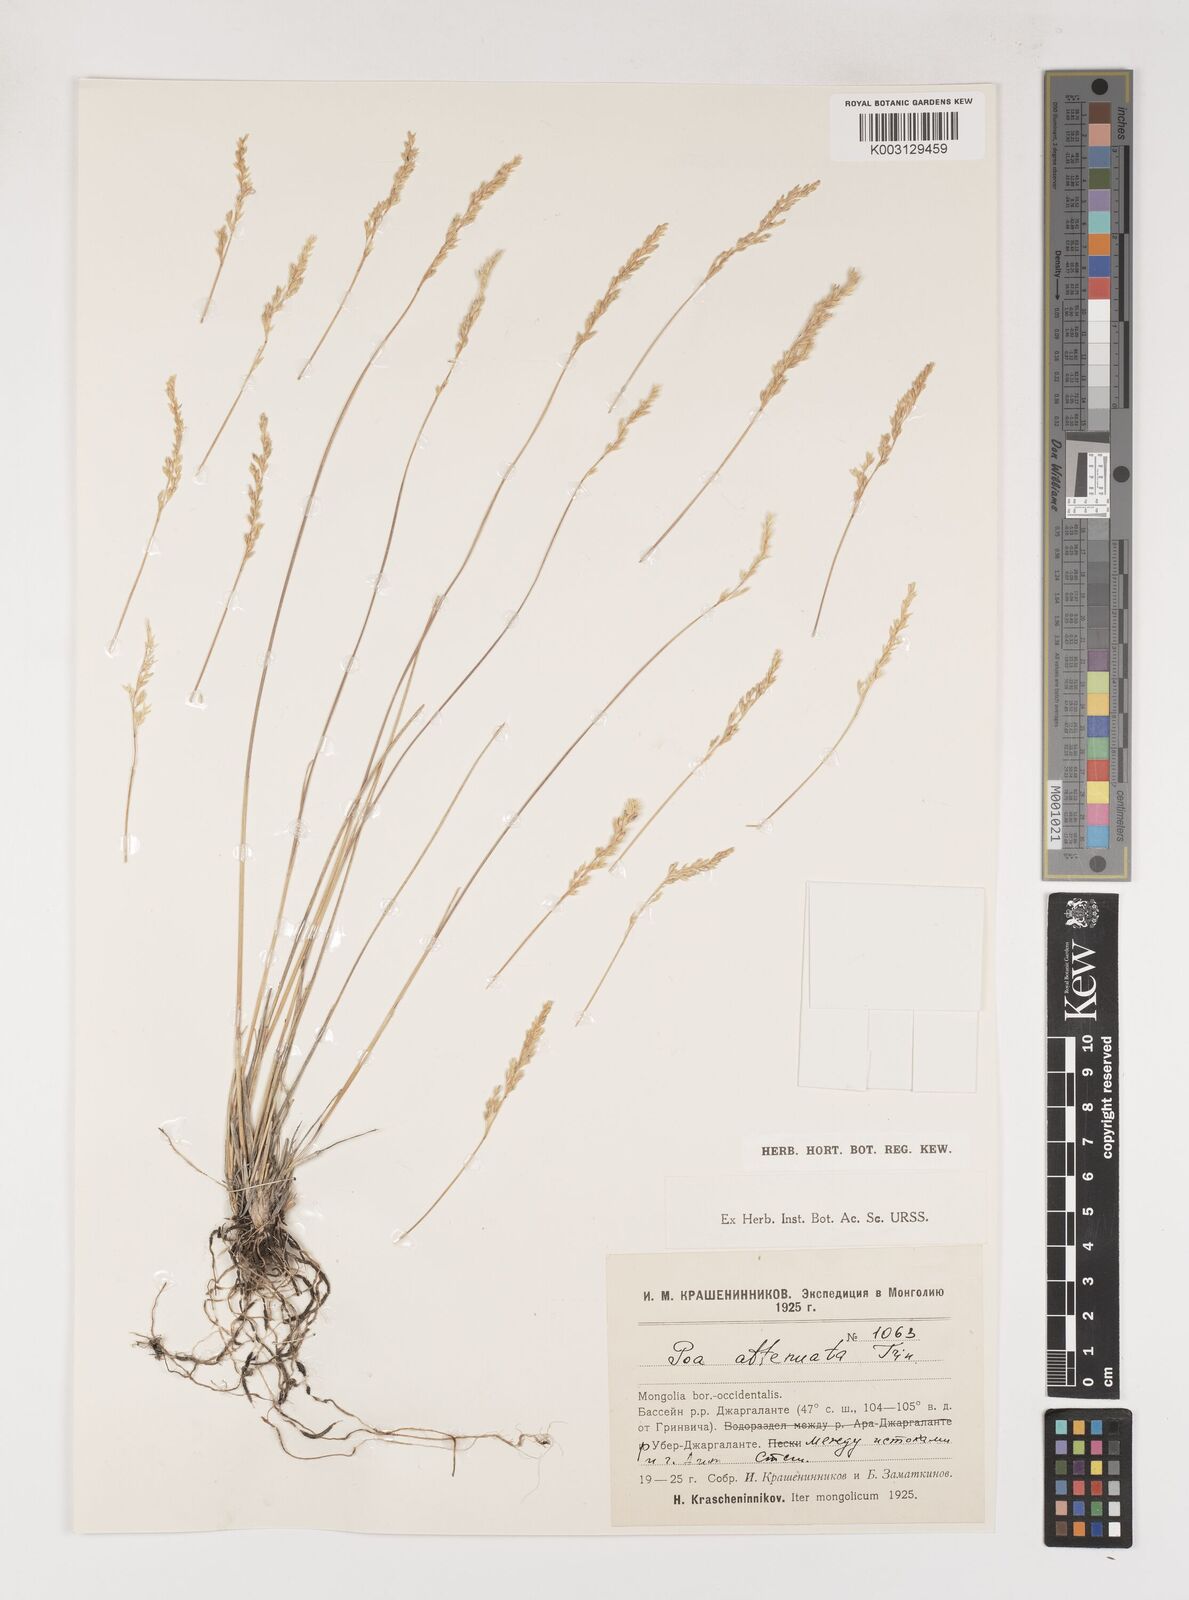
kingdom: Plantae
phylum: Tracheophyta
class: Liliopsida
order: Poales
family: Poaceae
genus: Poa
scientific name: Poa attenuata
